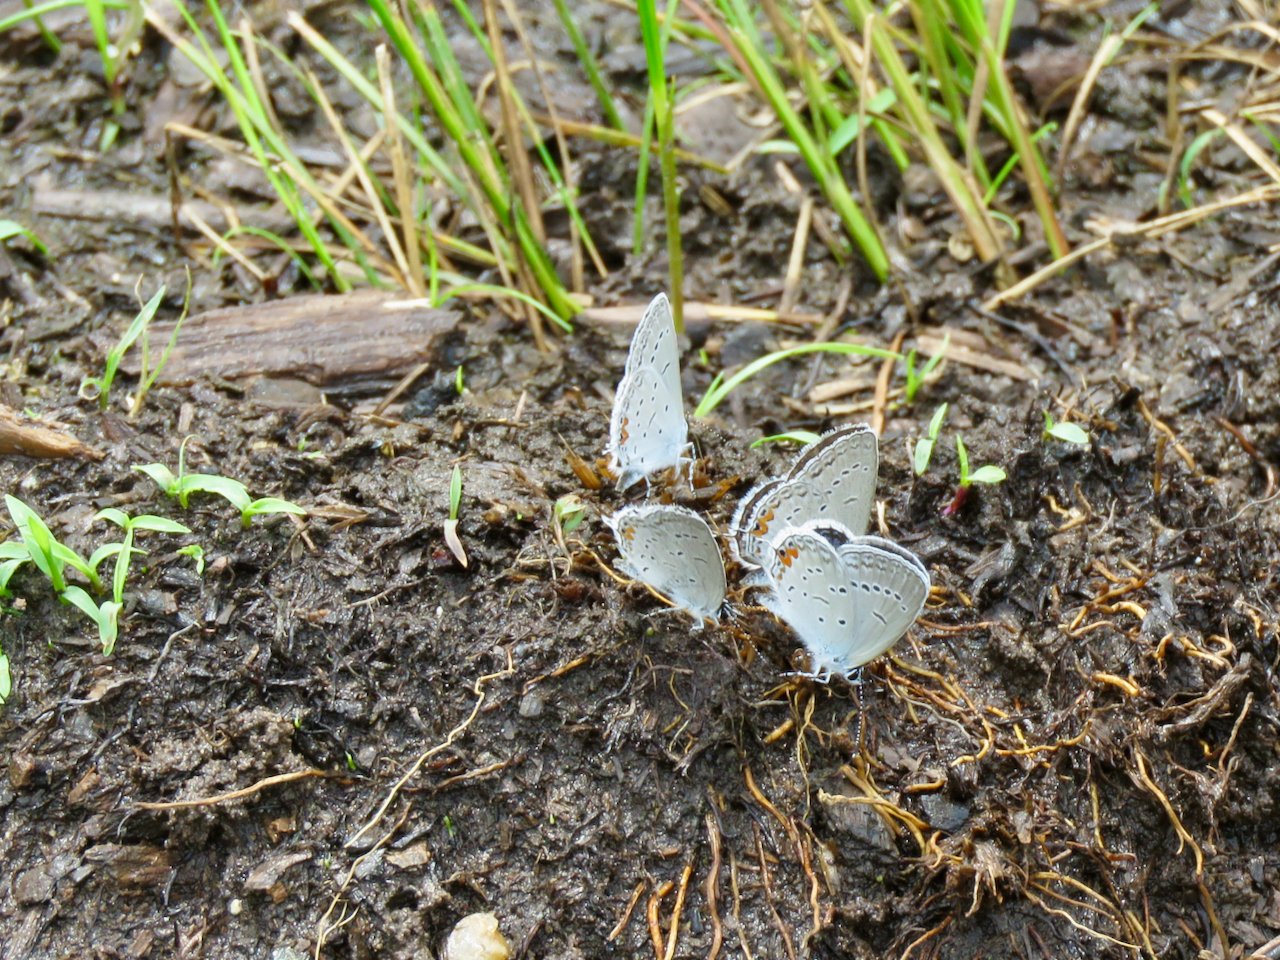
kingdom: Animalia
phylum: Arthropoda
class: Insecta
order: Lepidoptera
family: Lycaenidae
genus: Elkalyce
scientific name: Elkalyce comyntas
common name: Eastern Tailed-Blue
